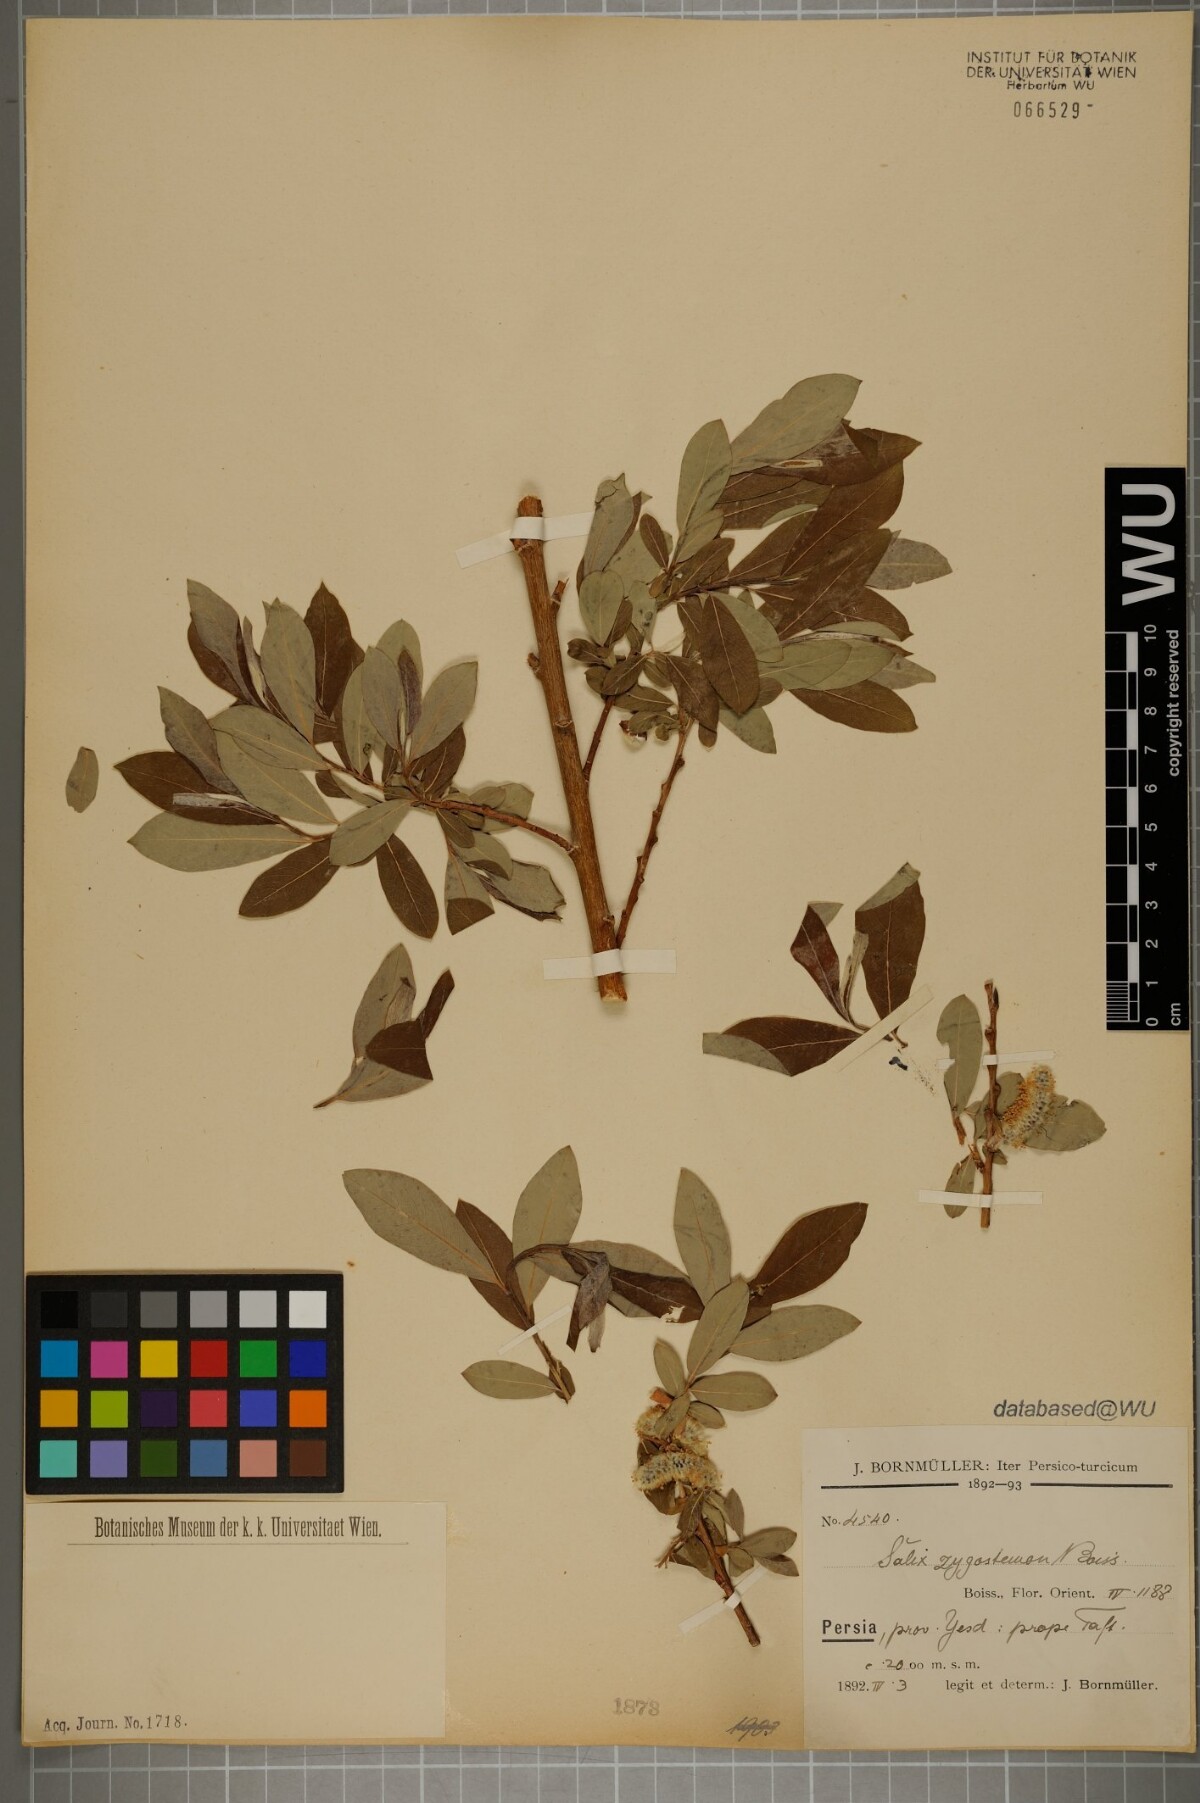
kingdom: Plantae
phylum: Tracheophyta
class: Magnoliopsida
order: Malpighiales
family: Salicaceae
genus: Salix
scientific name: Salix sericocarpa
